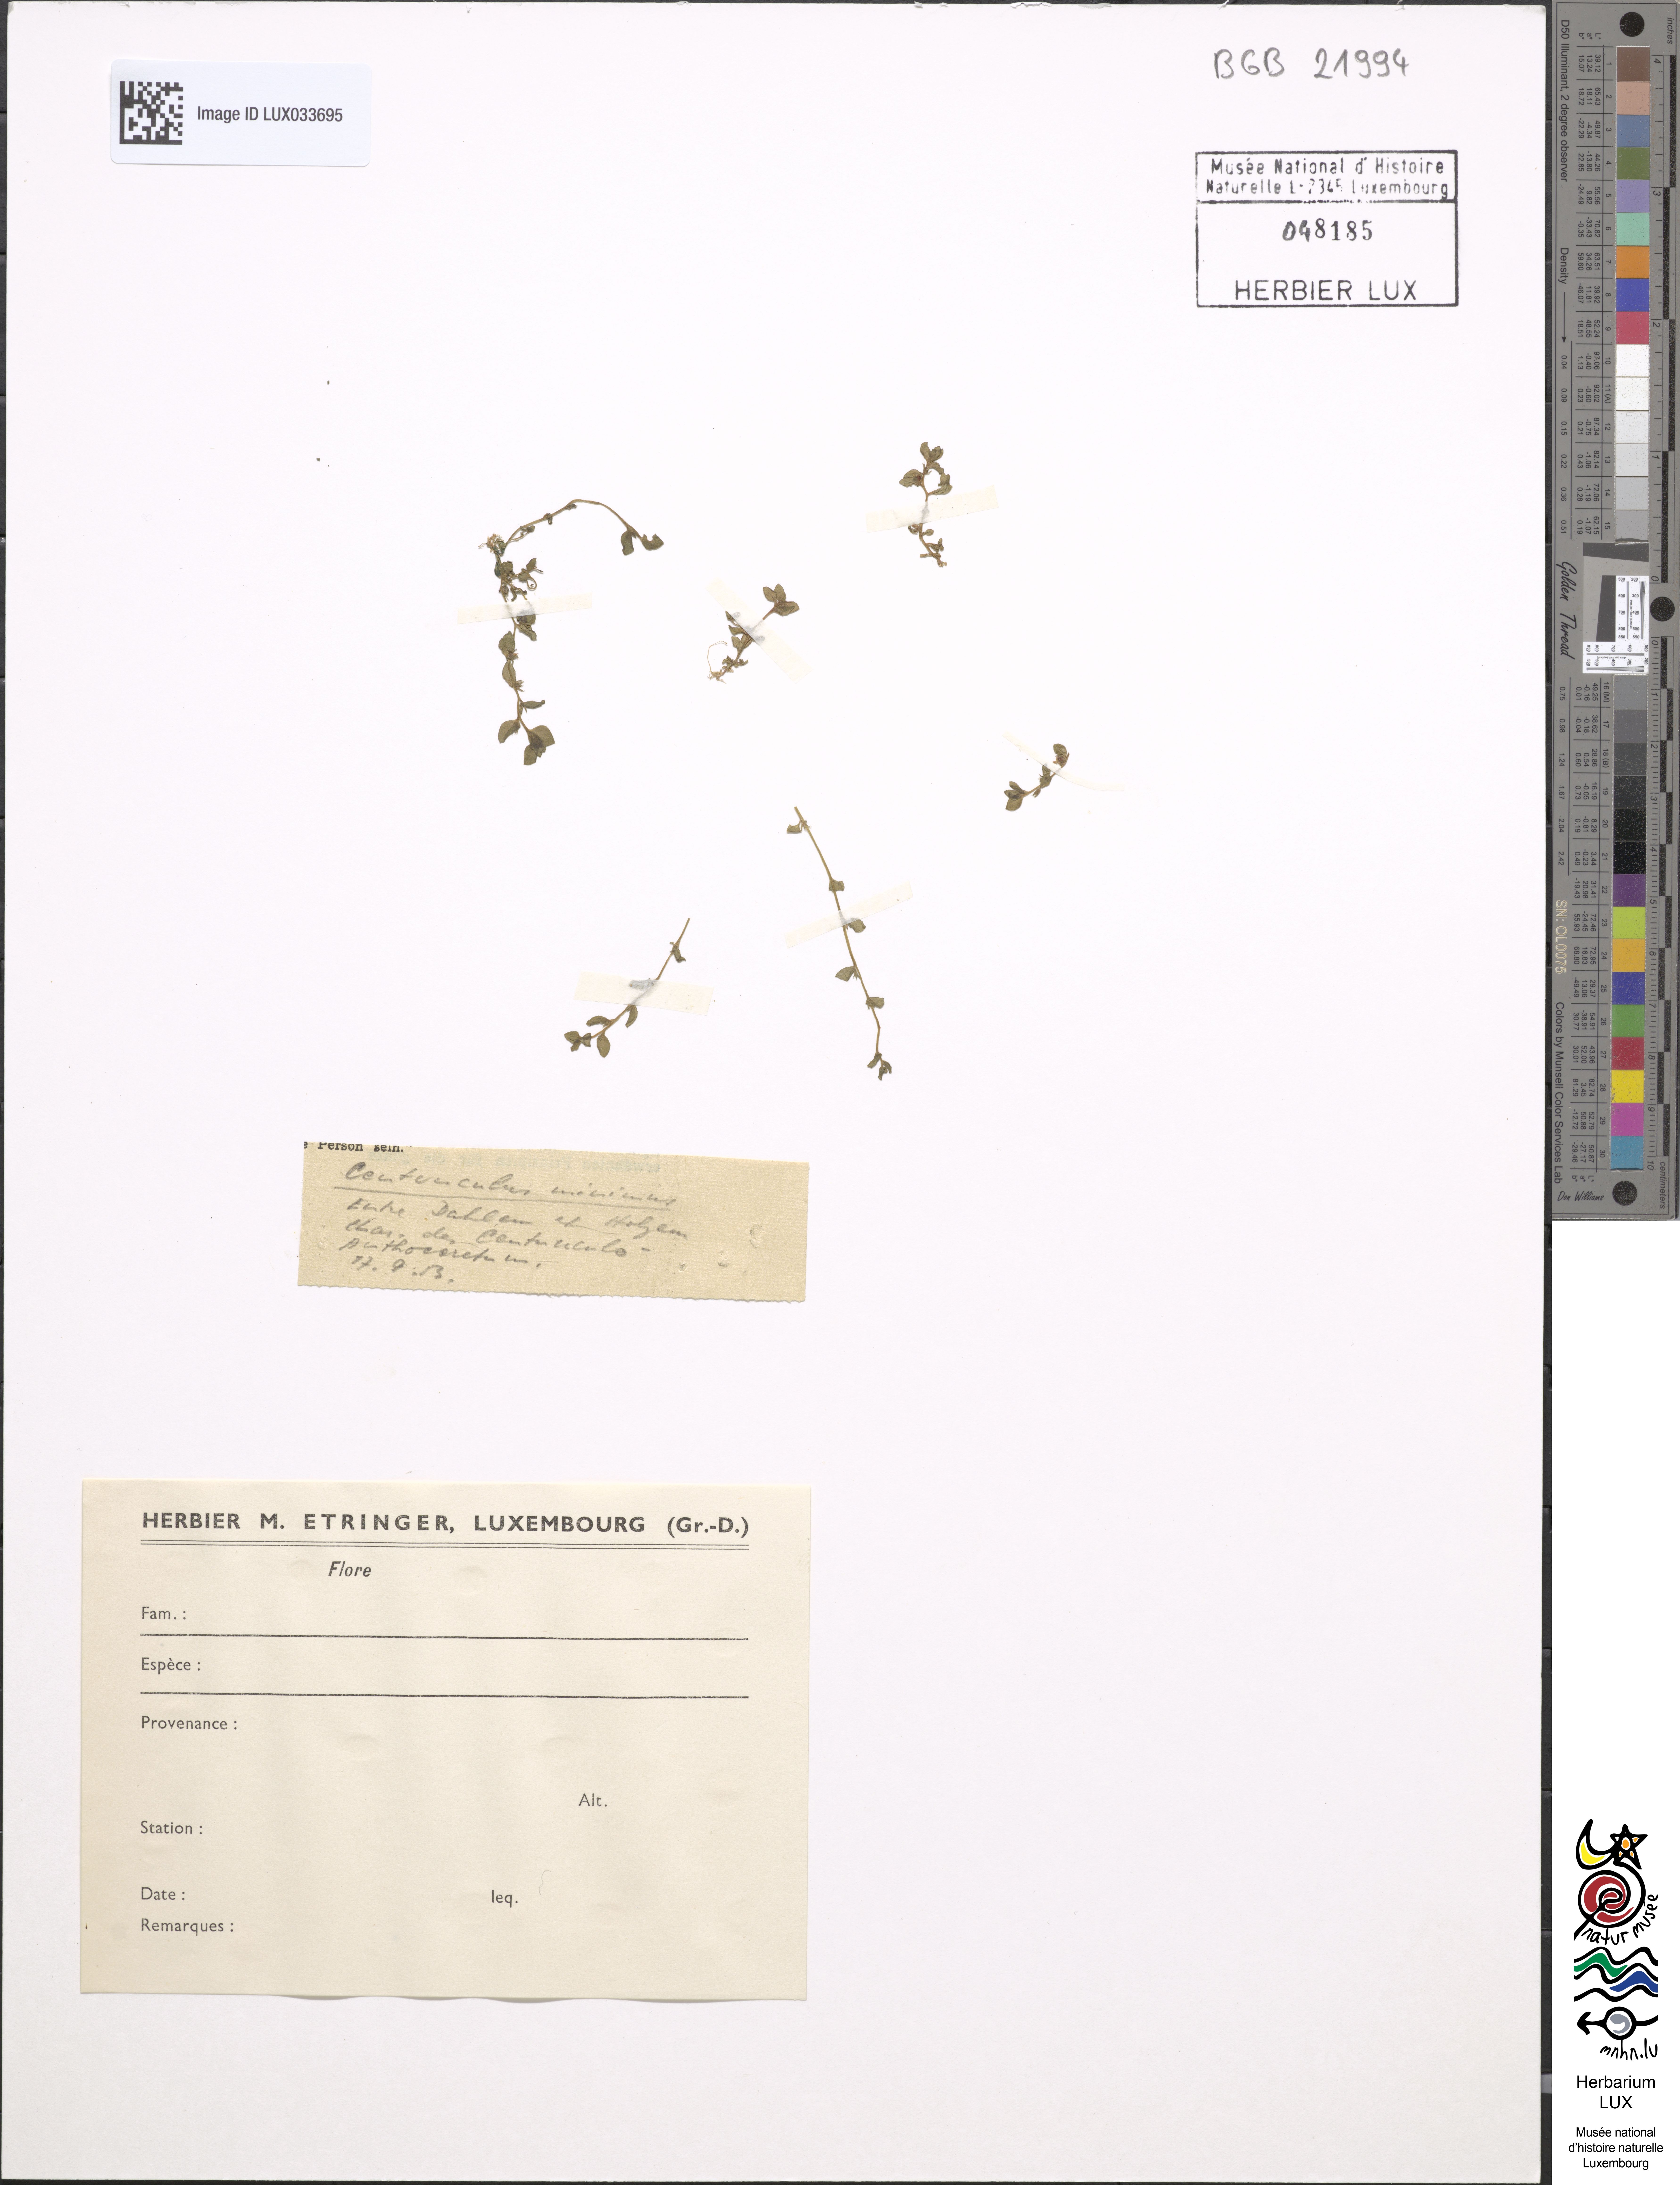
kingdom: Plantae
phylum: Tracheophyta
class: Magnoliopsida
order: Ericales
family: Primulaceae
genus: Lysimachia
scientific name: Lysimachia minima
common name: Chaffweed
